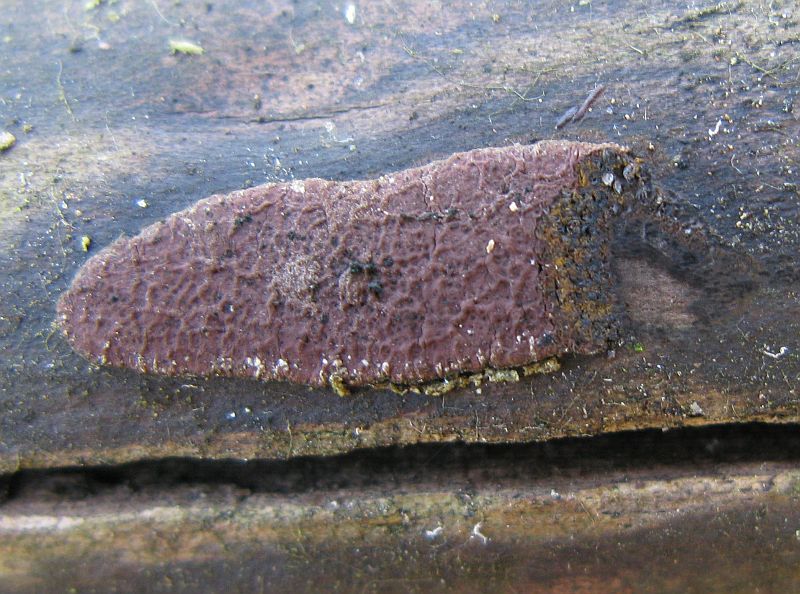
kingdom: Fungi
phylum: Ascomycota
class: Sordariomycetes
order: Xylariales
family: Hypoxylaceae
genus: Hypoxylon
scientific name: Hypoxylon macrocarpum
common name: skorpe-kulbær
